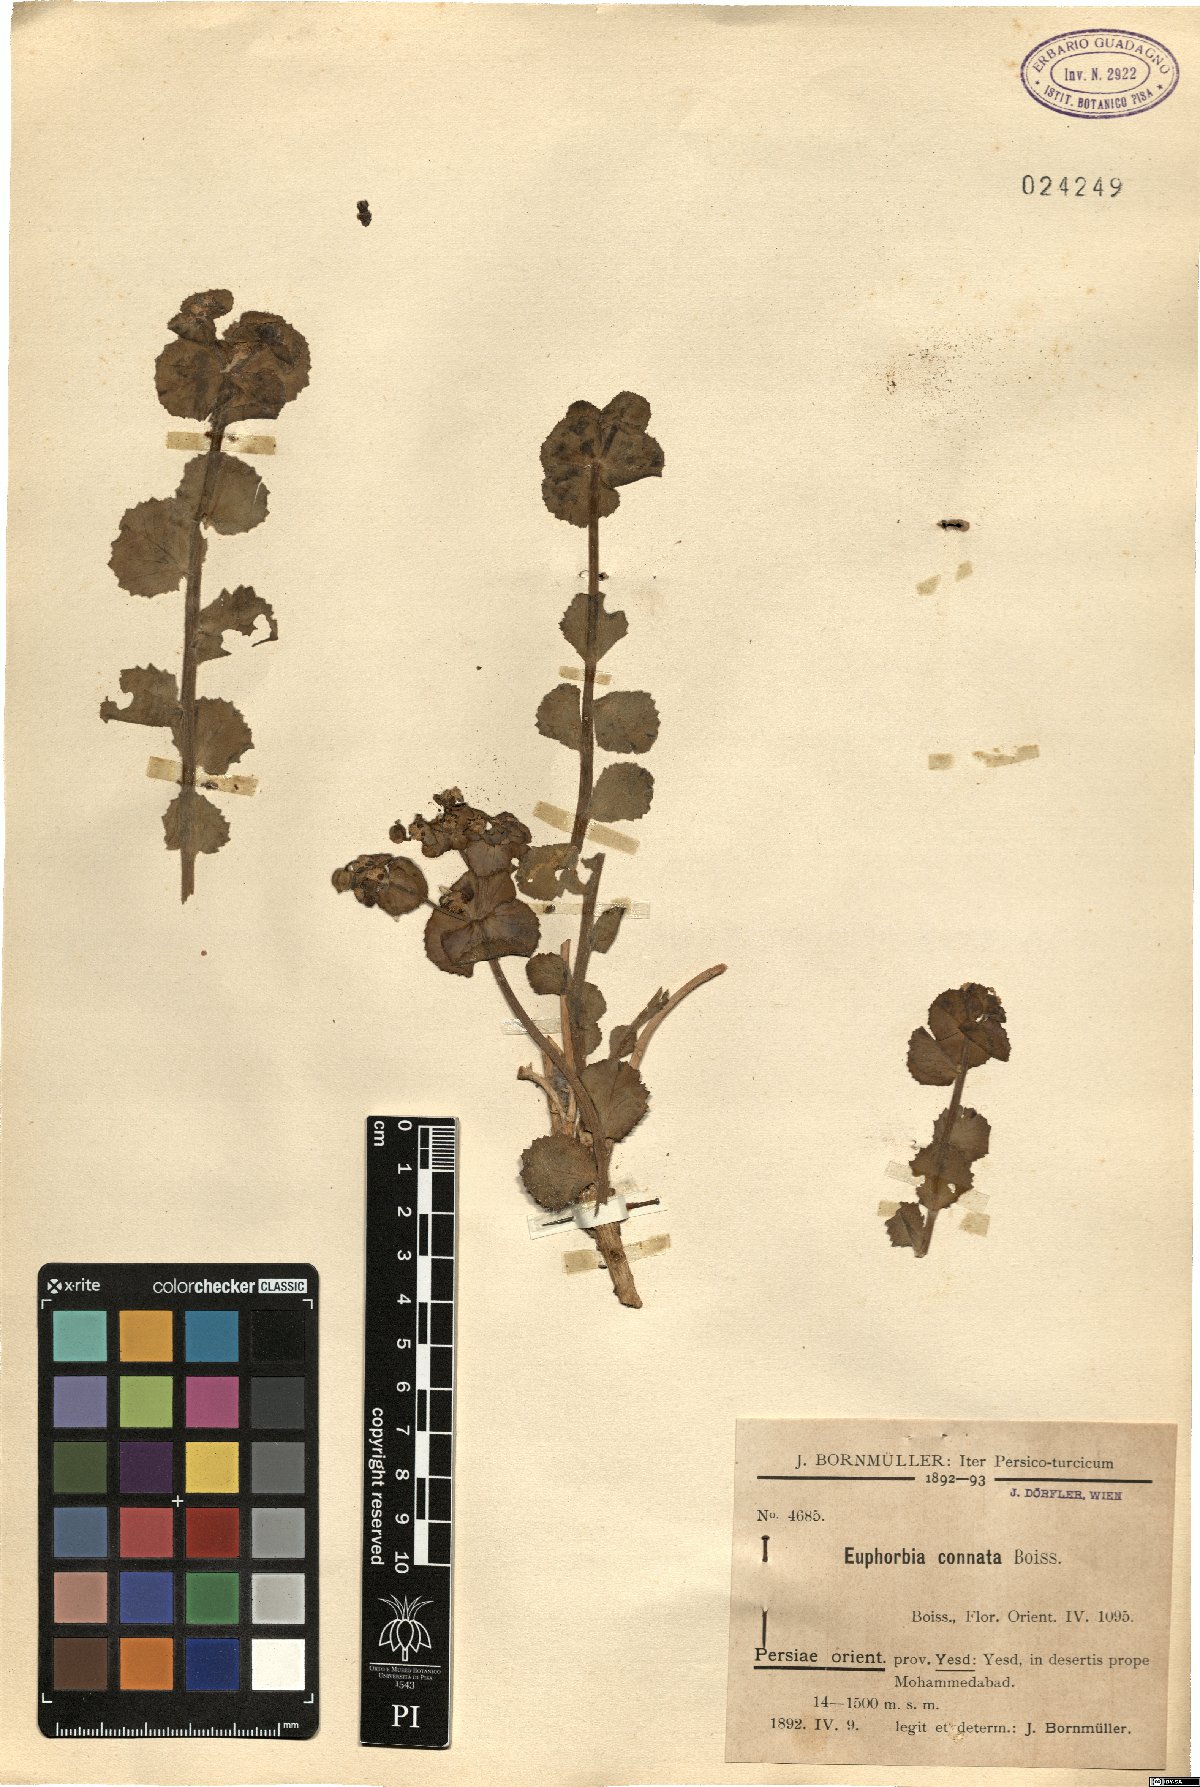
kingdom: Plantae
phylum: Tracheophyta
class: Magnoliopsida
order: Malpighiales
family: Euphorbiaceae
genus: Euphorbia
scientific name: Euphorbia connata
